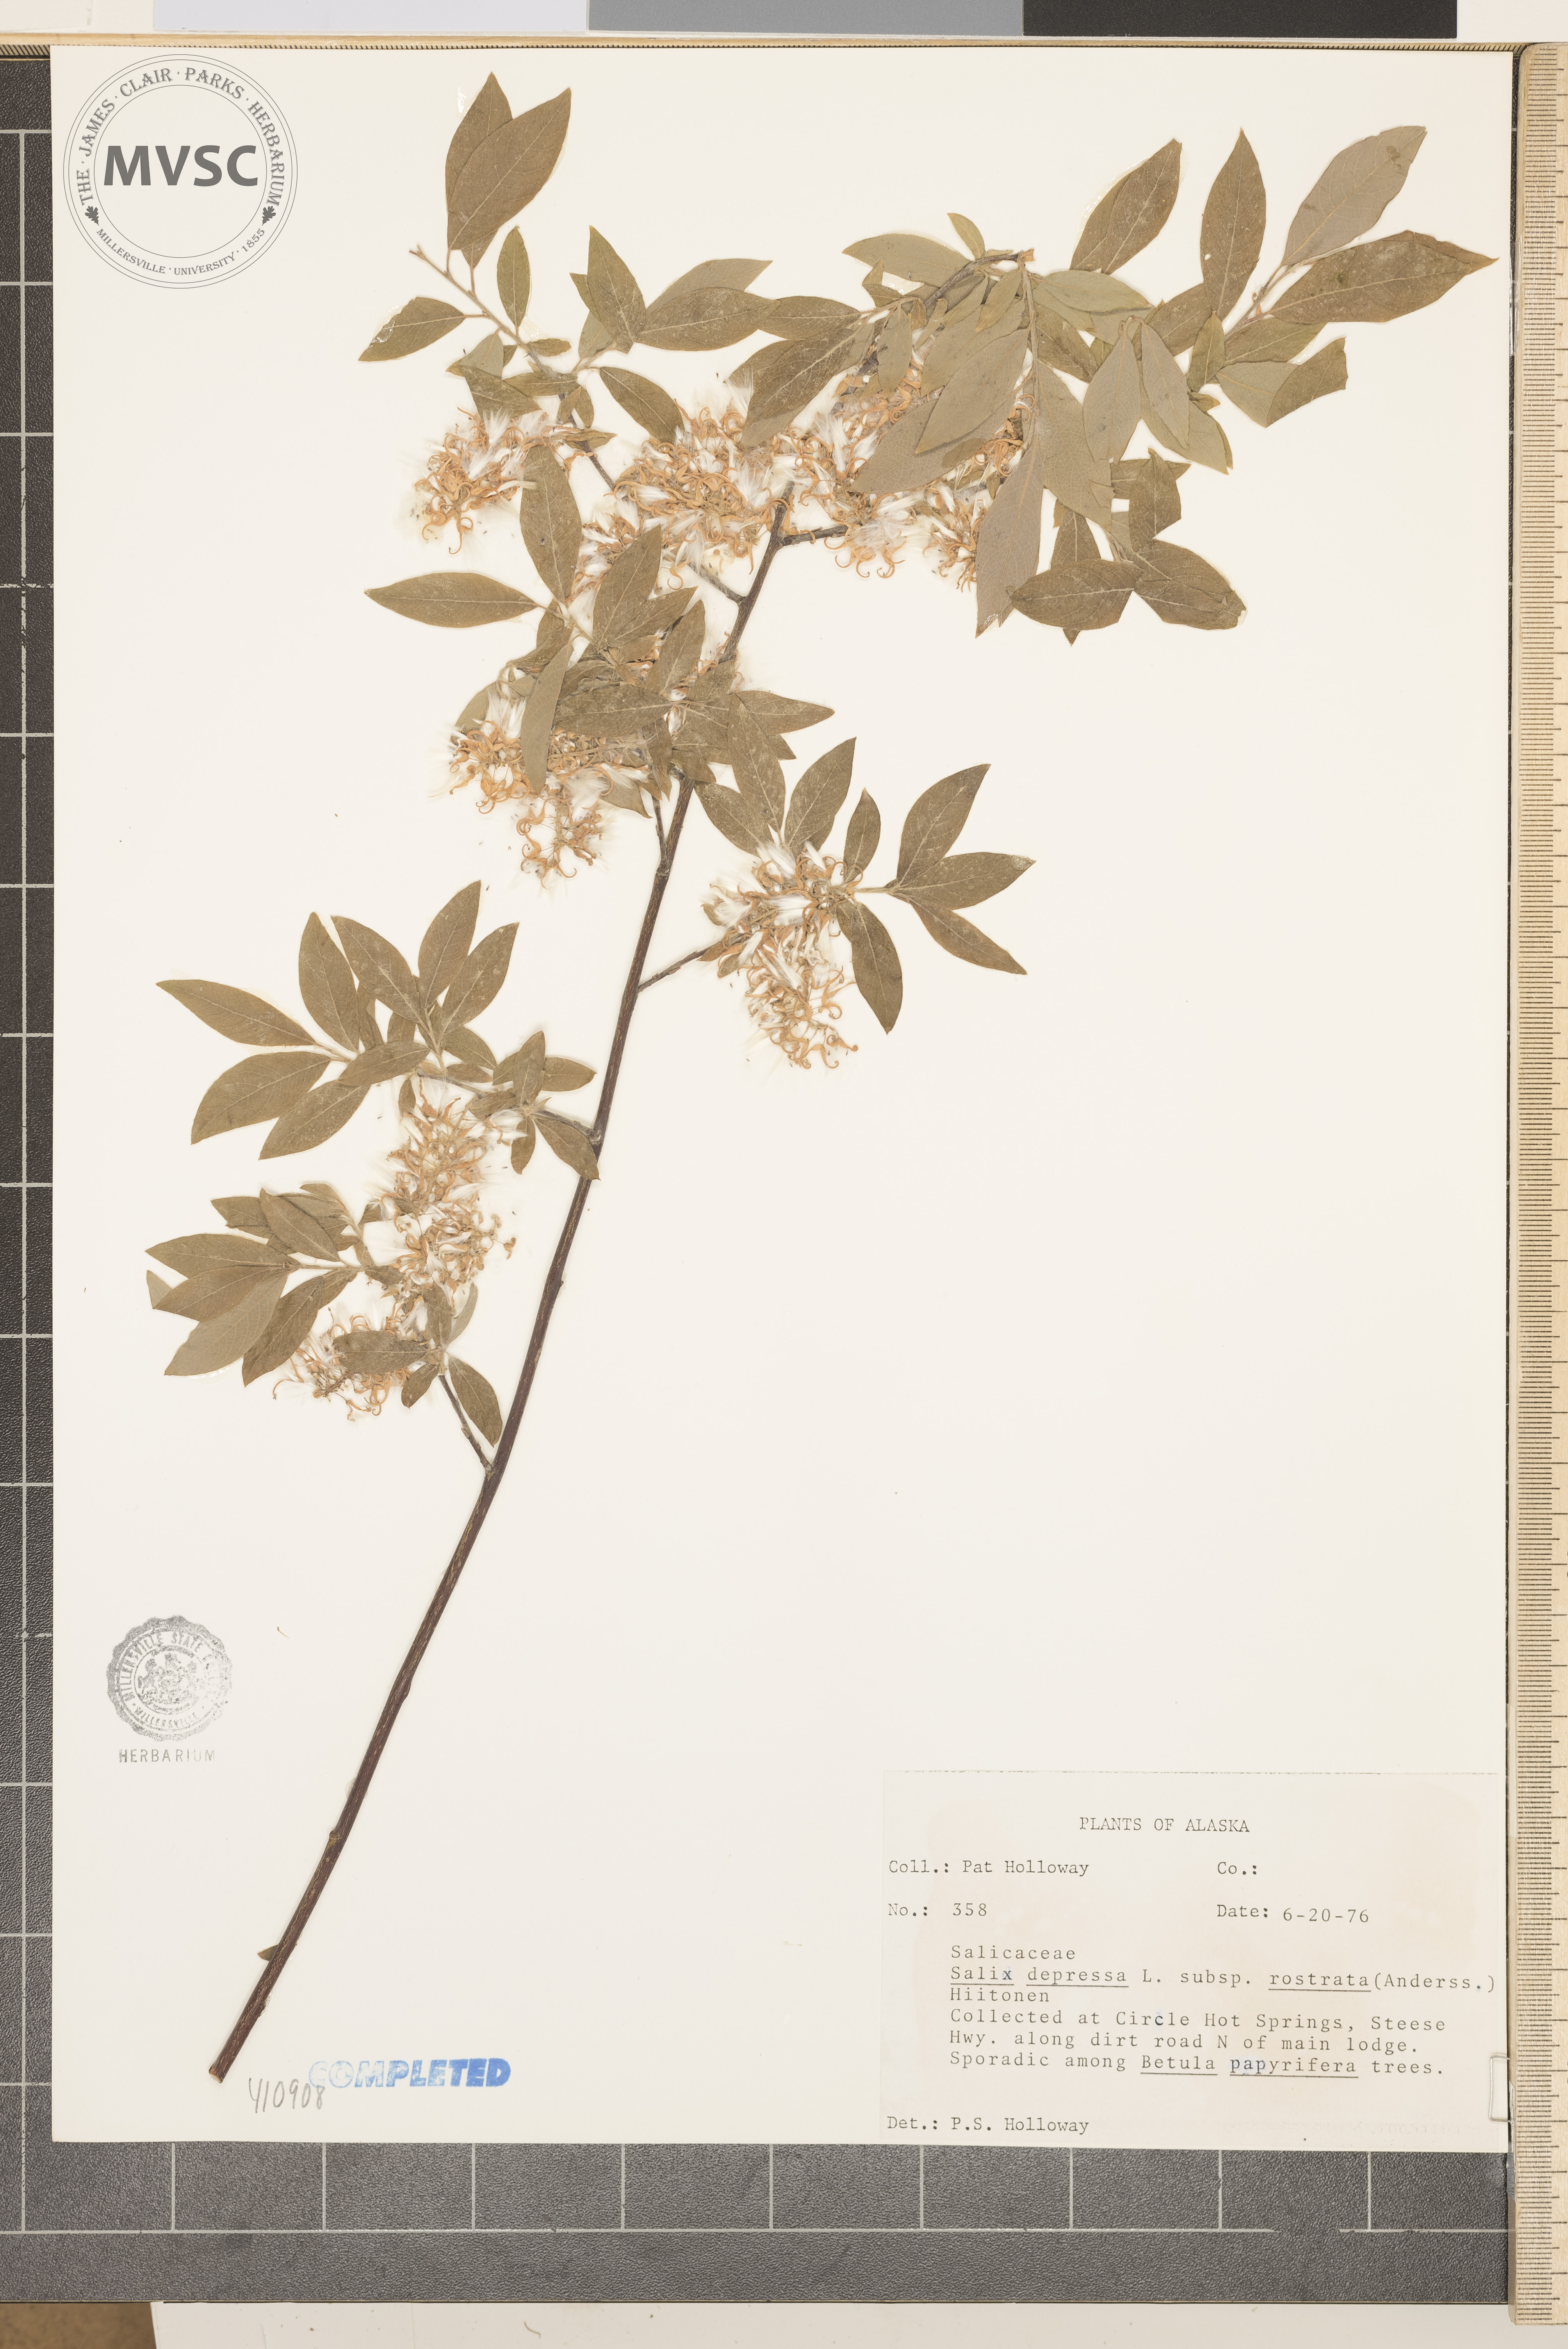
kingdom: Plantae
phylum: Tracheophyta
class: Magnoliopsida
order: Malpighiales
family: Salicaceae
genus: Salix
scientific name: Salix
